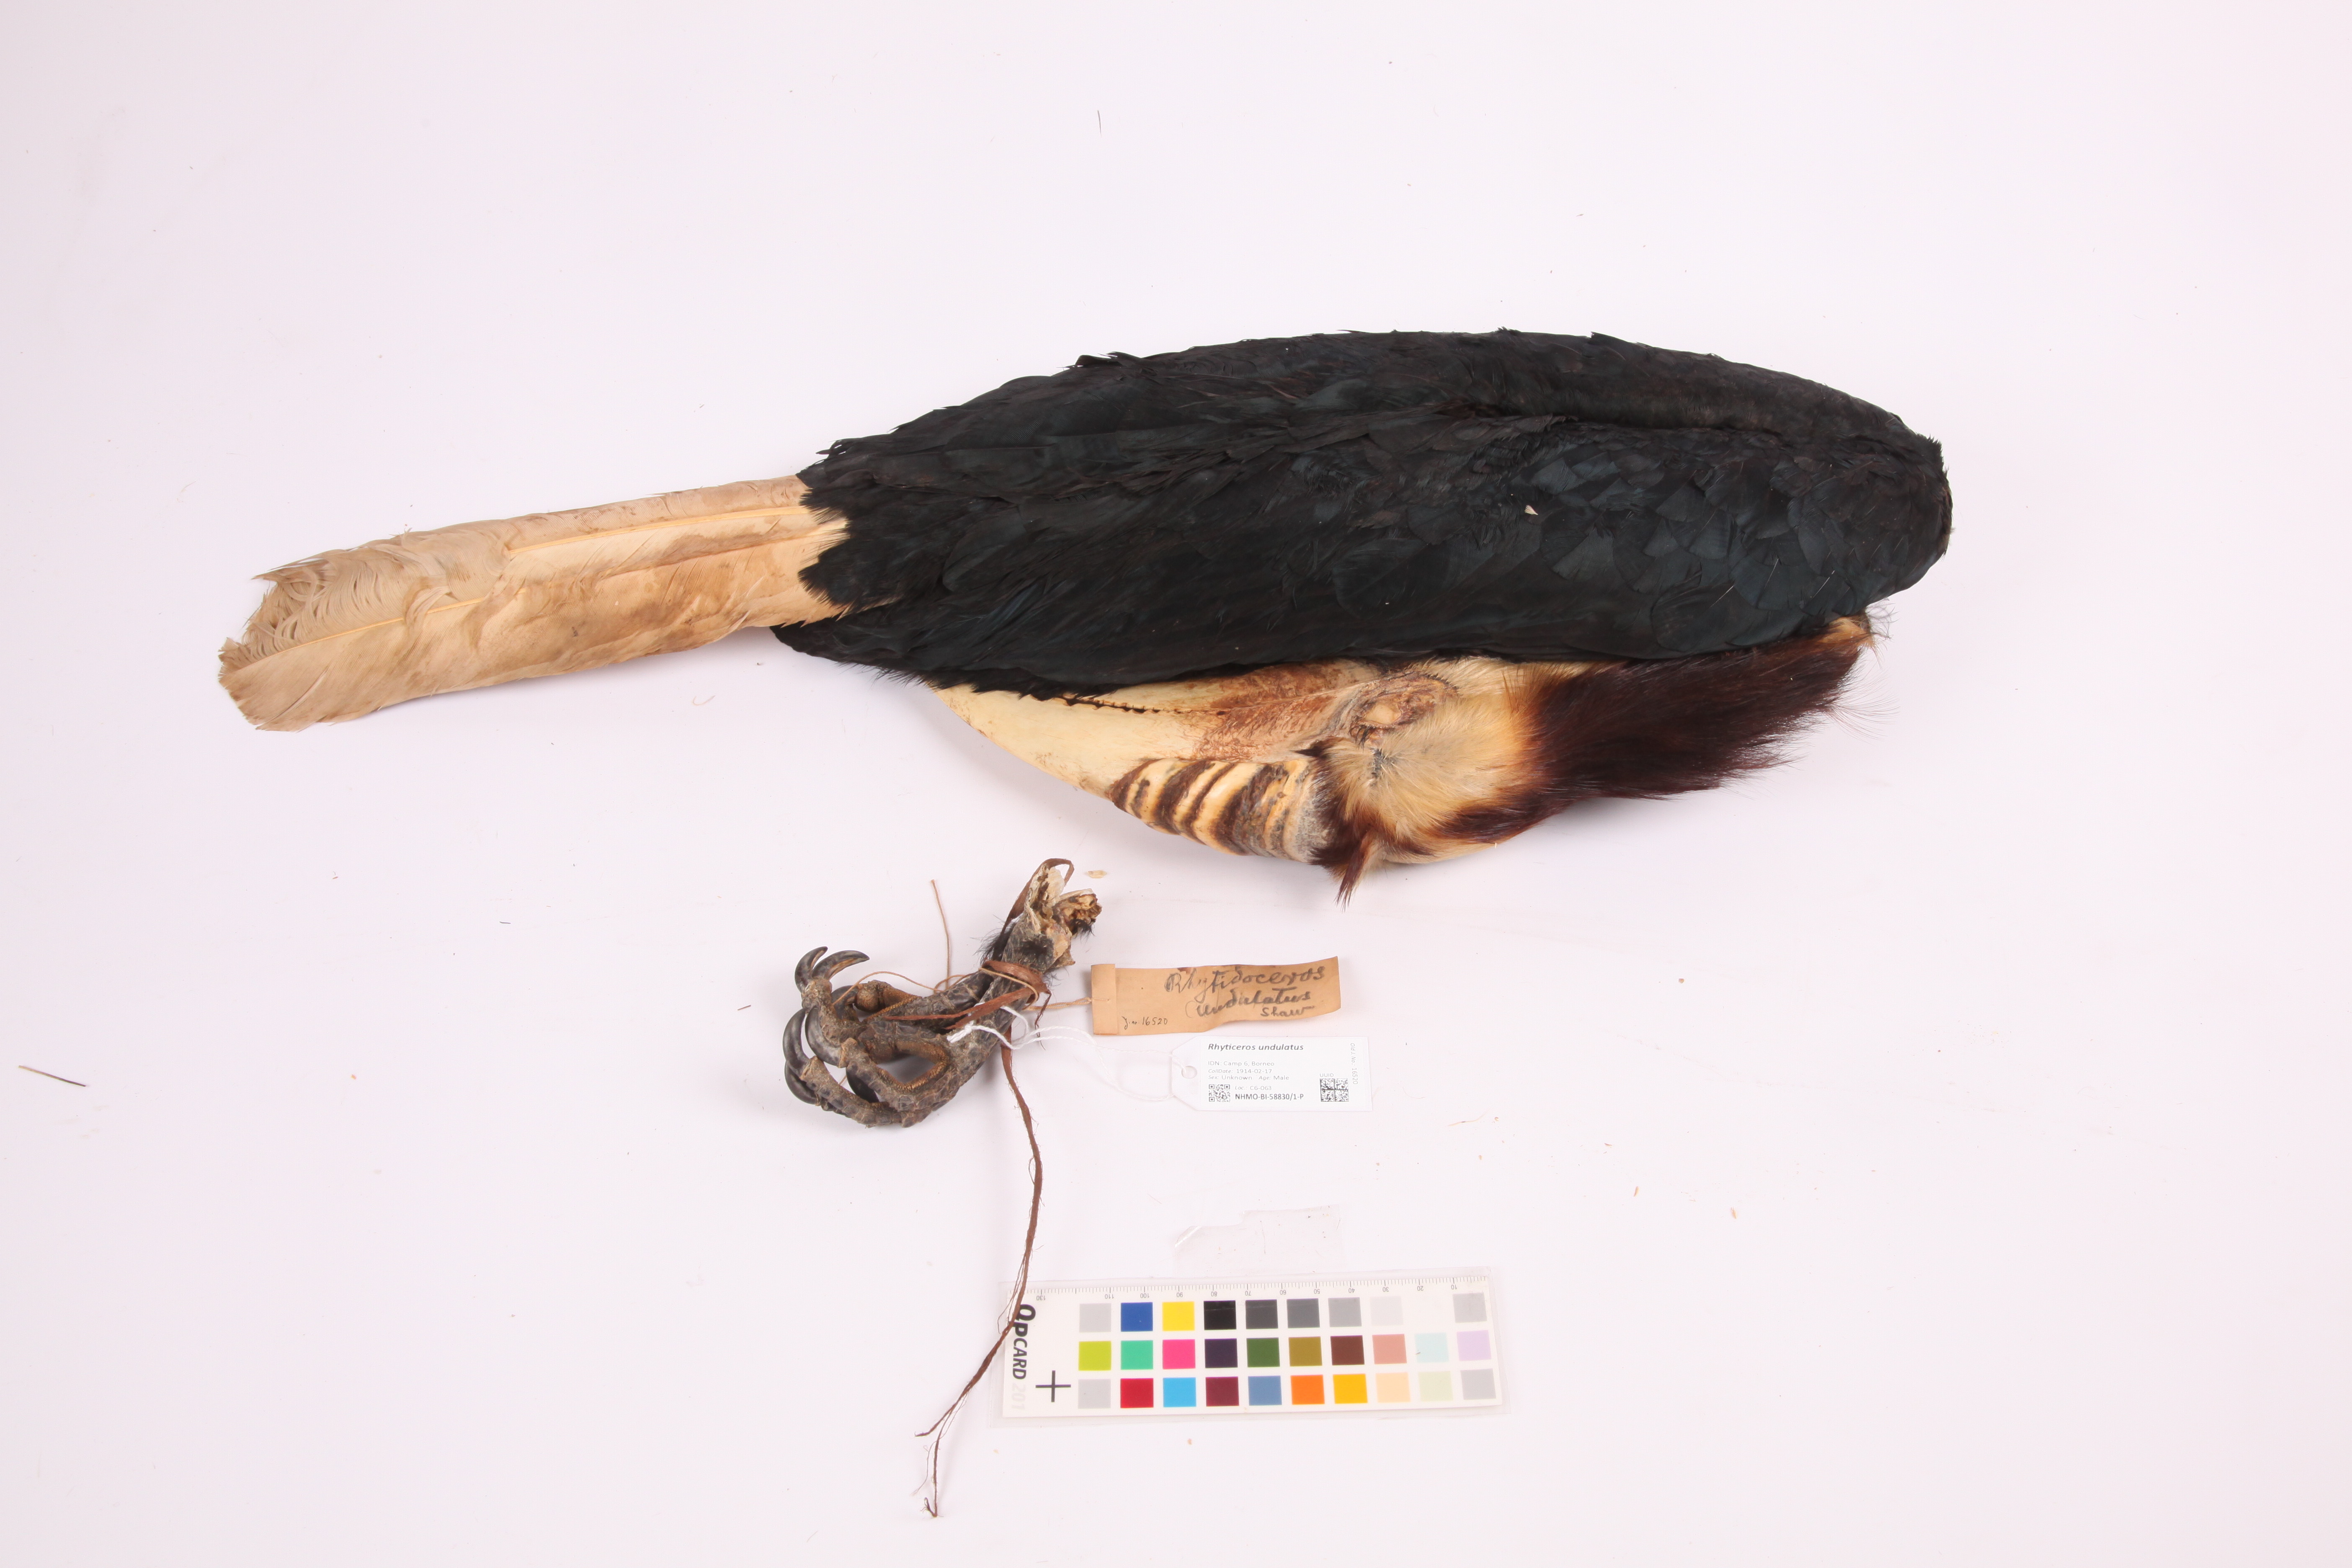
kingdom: Animalia
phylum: Chordata
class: Aves
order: Bucerotiformes
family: Bucerotidae
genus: Rhyticeros
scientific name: Rhyticeros undulatus
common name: Wreathed hornbill
